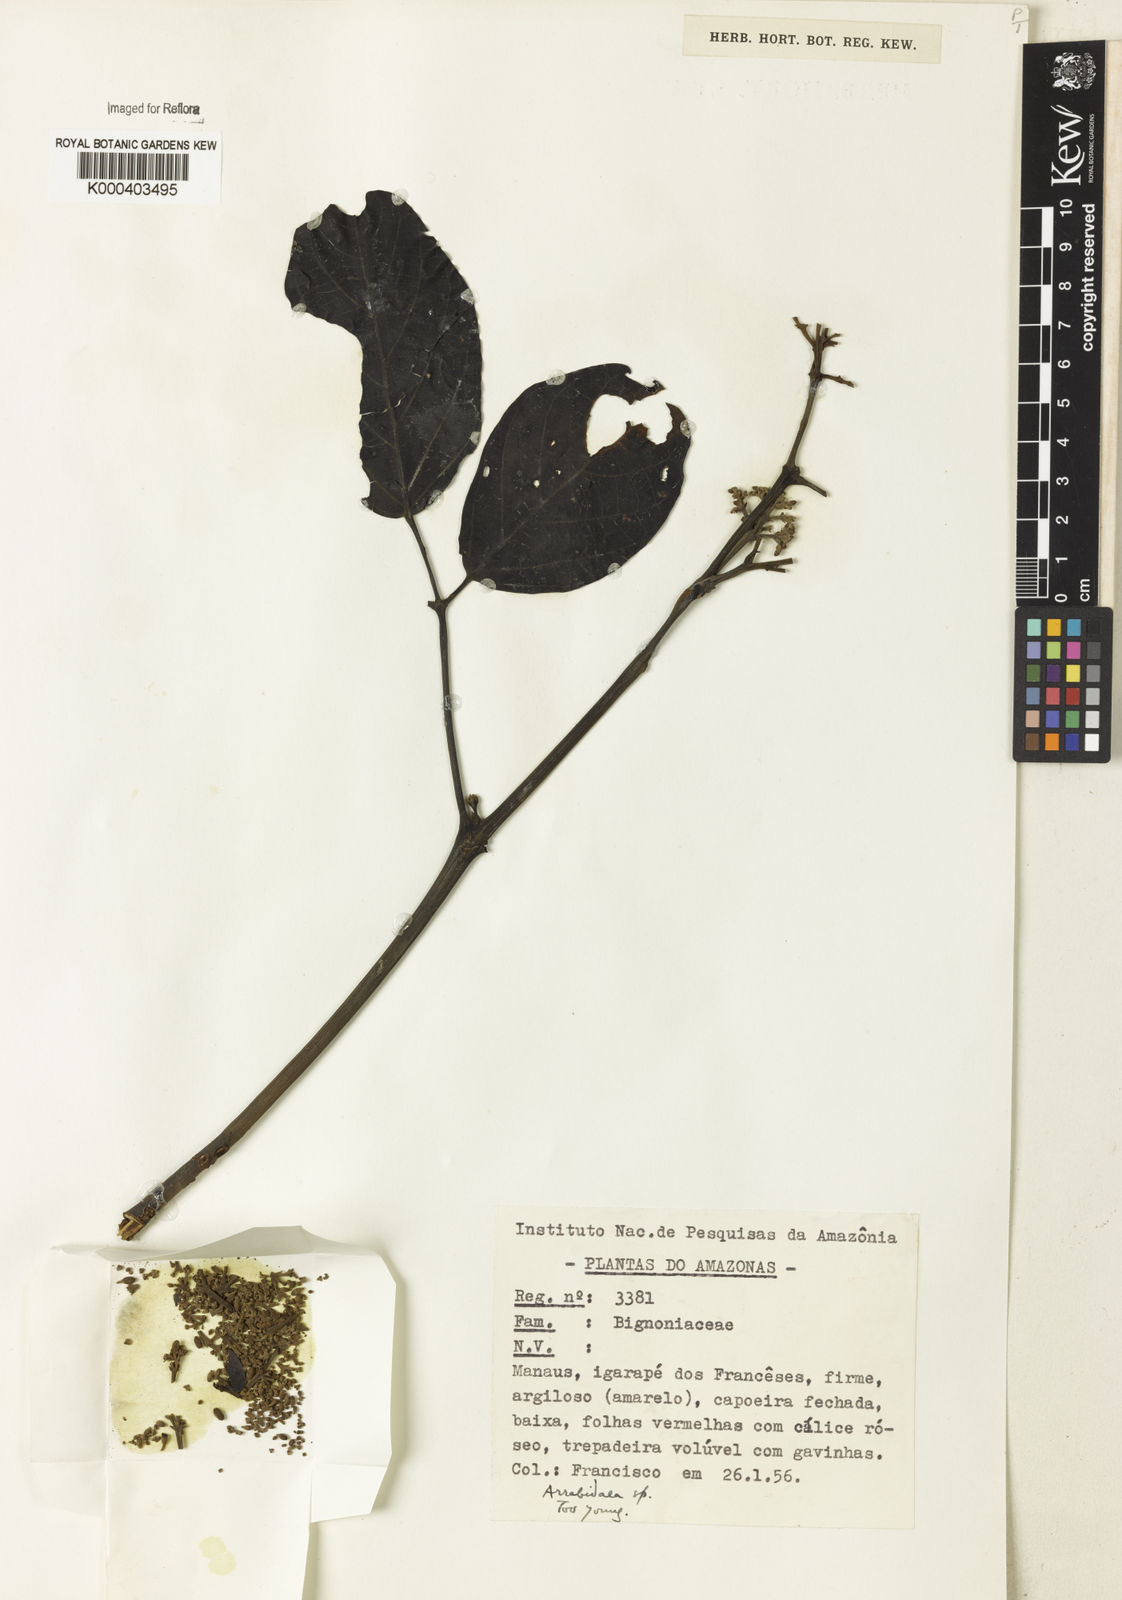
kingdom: Plantae
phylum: Tracheophyta
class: Magnoliopsida
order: Rosales
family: Rhamnaceae
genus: Arrabidaea
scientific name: Arrabidaea
